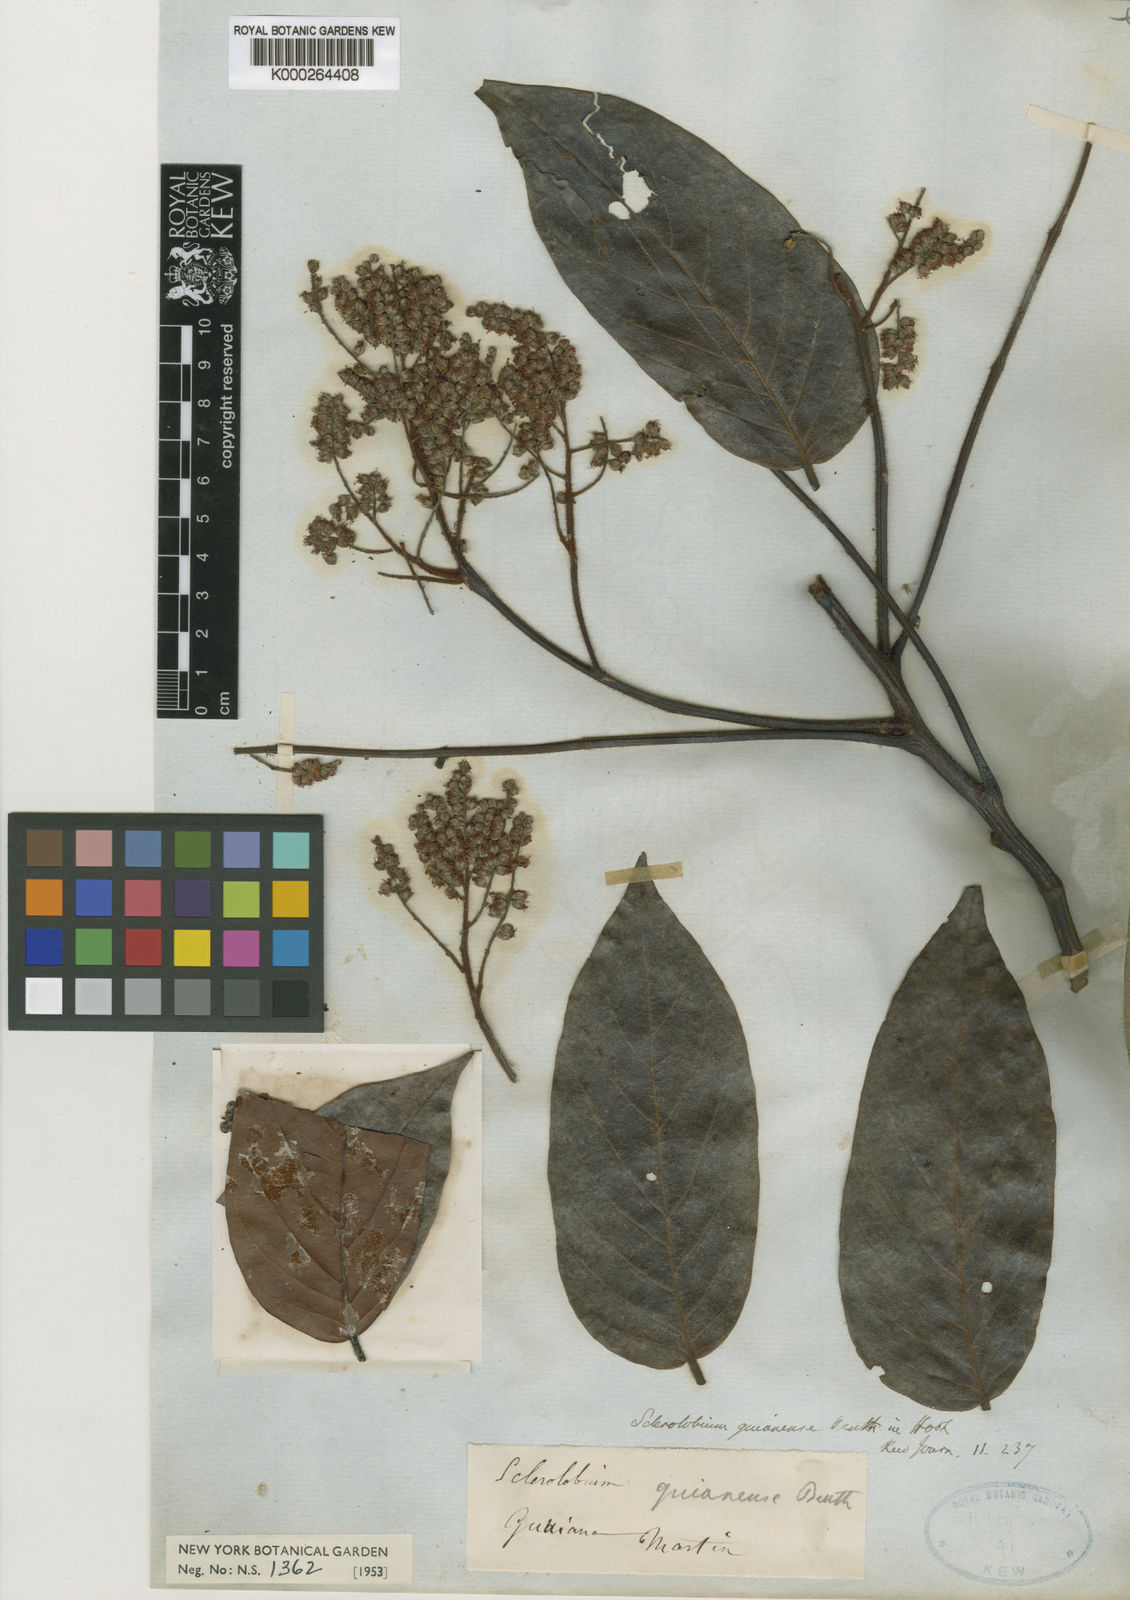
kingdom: Plantae
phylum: Tracheophyta
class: Magnoliopsida
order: Fabales
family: Fabaceae
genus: Tachigali
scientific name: Tachigali guianensis
